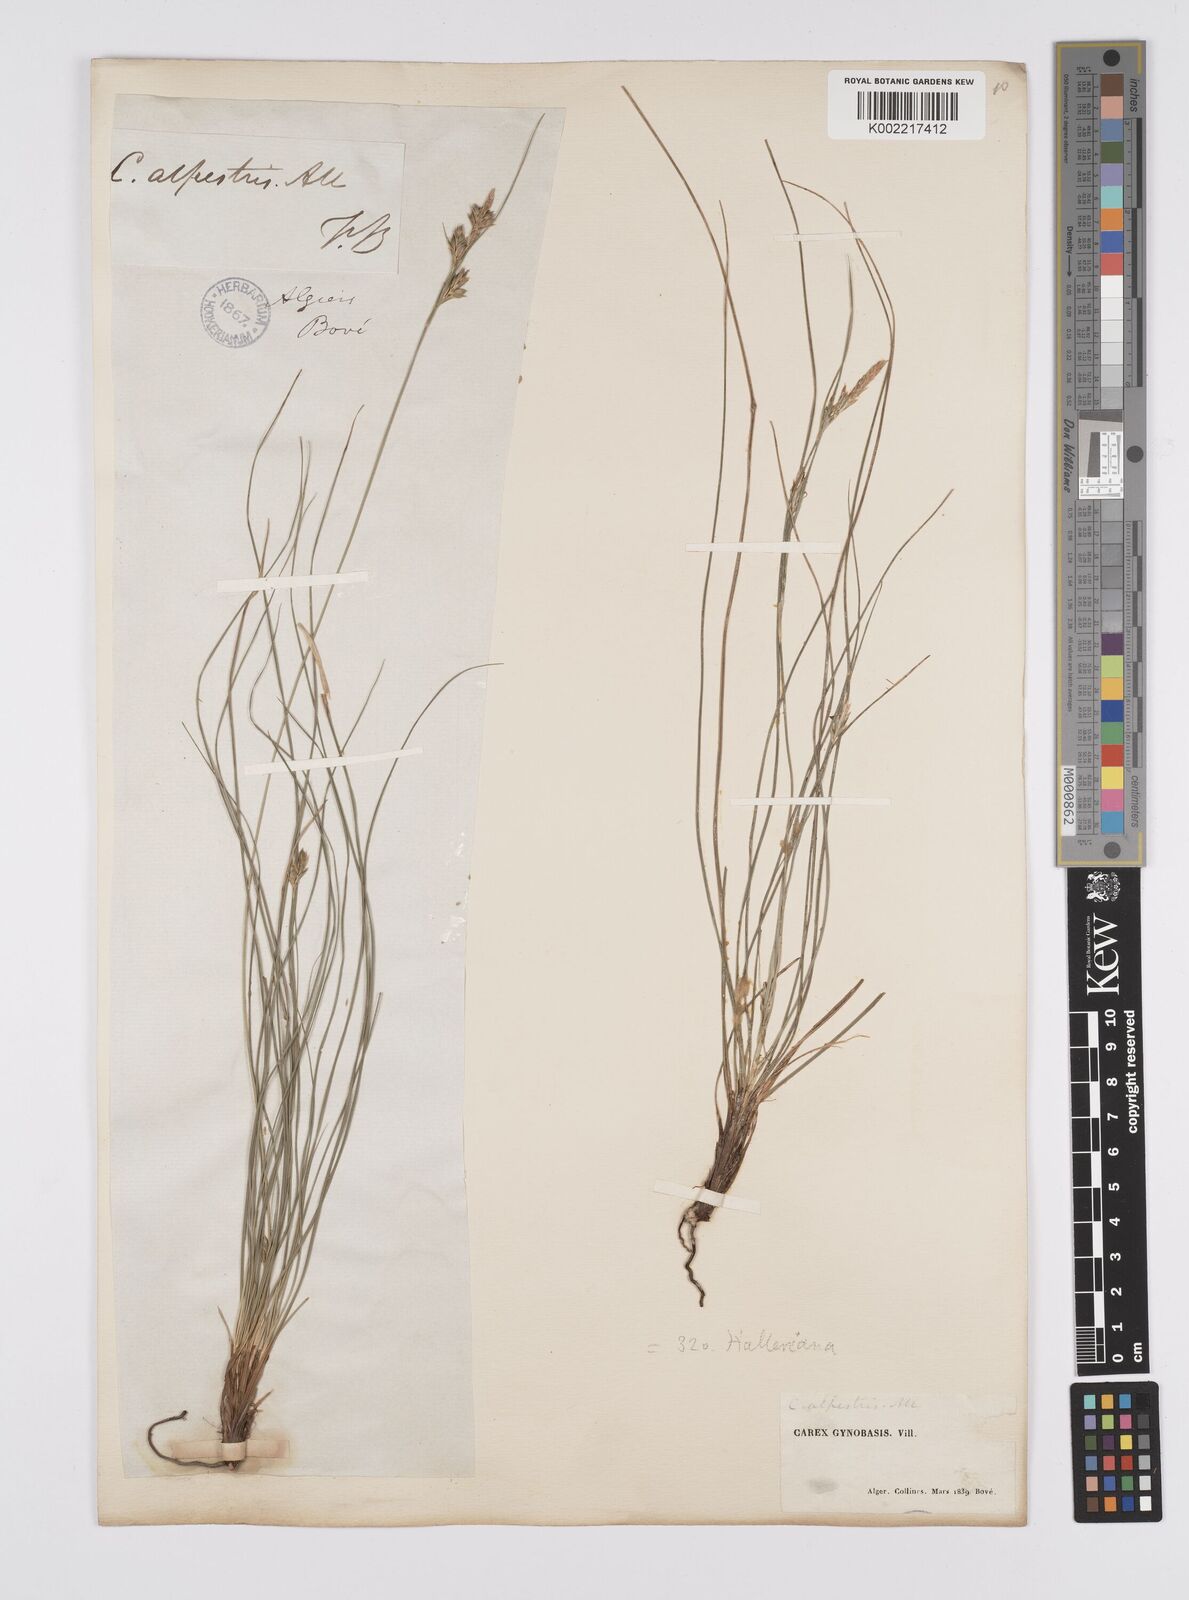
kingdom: Plantae
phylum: Tracheophyta
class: Liliopsida
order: Poales
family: Cyperaceae
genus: Carex
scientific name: Carex halleriana
